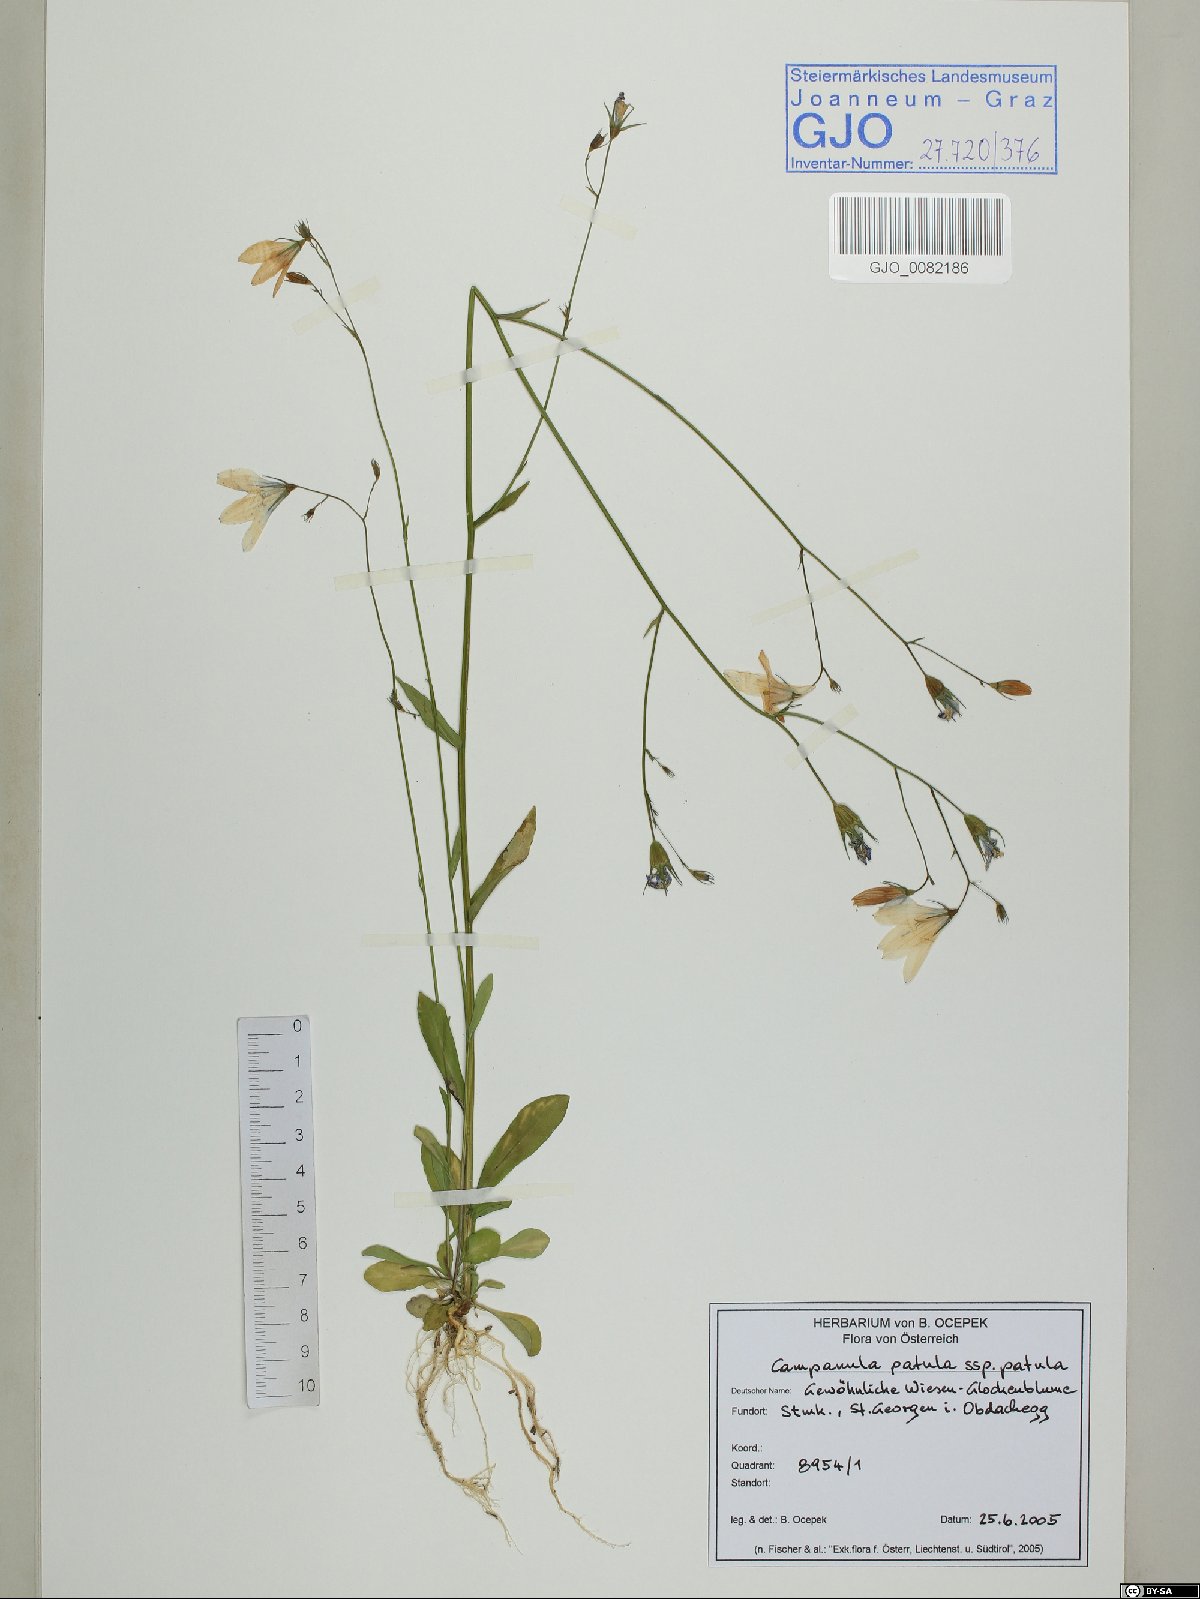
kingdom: Plantae
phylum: Tracheophyta
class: Magnoliopsida
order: Asterales
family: Campanulaceae
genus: Campanula
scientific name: Campanula patula
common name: Spreading bellflower
